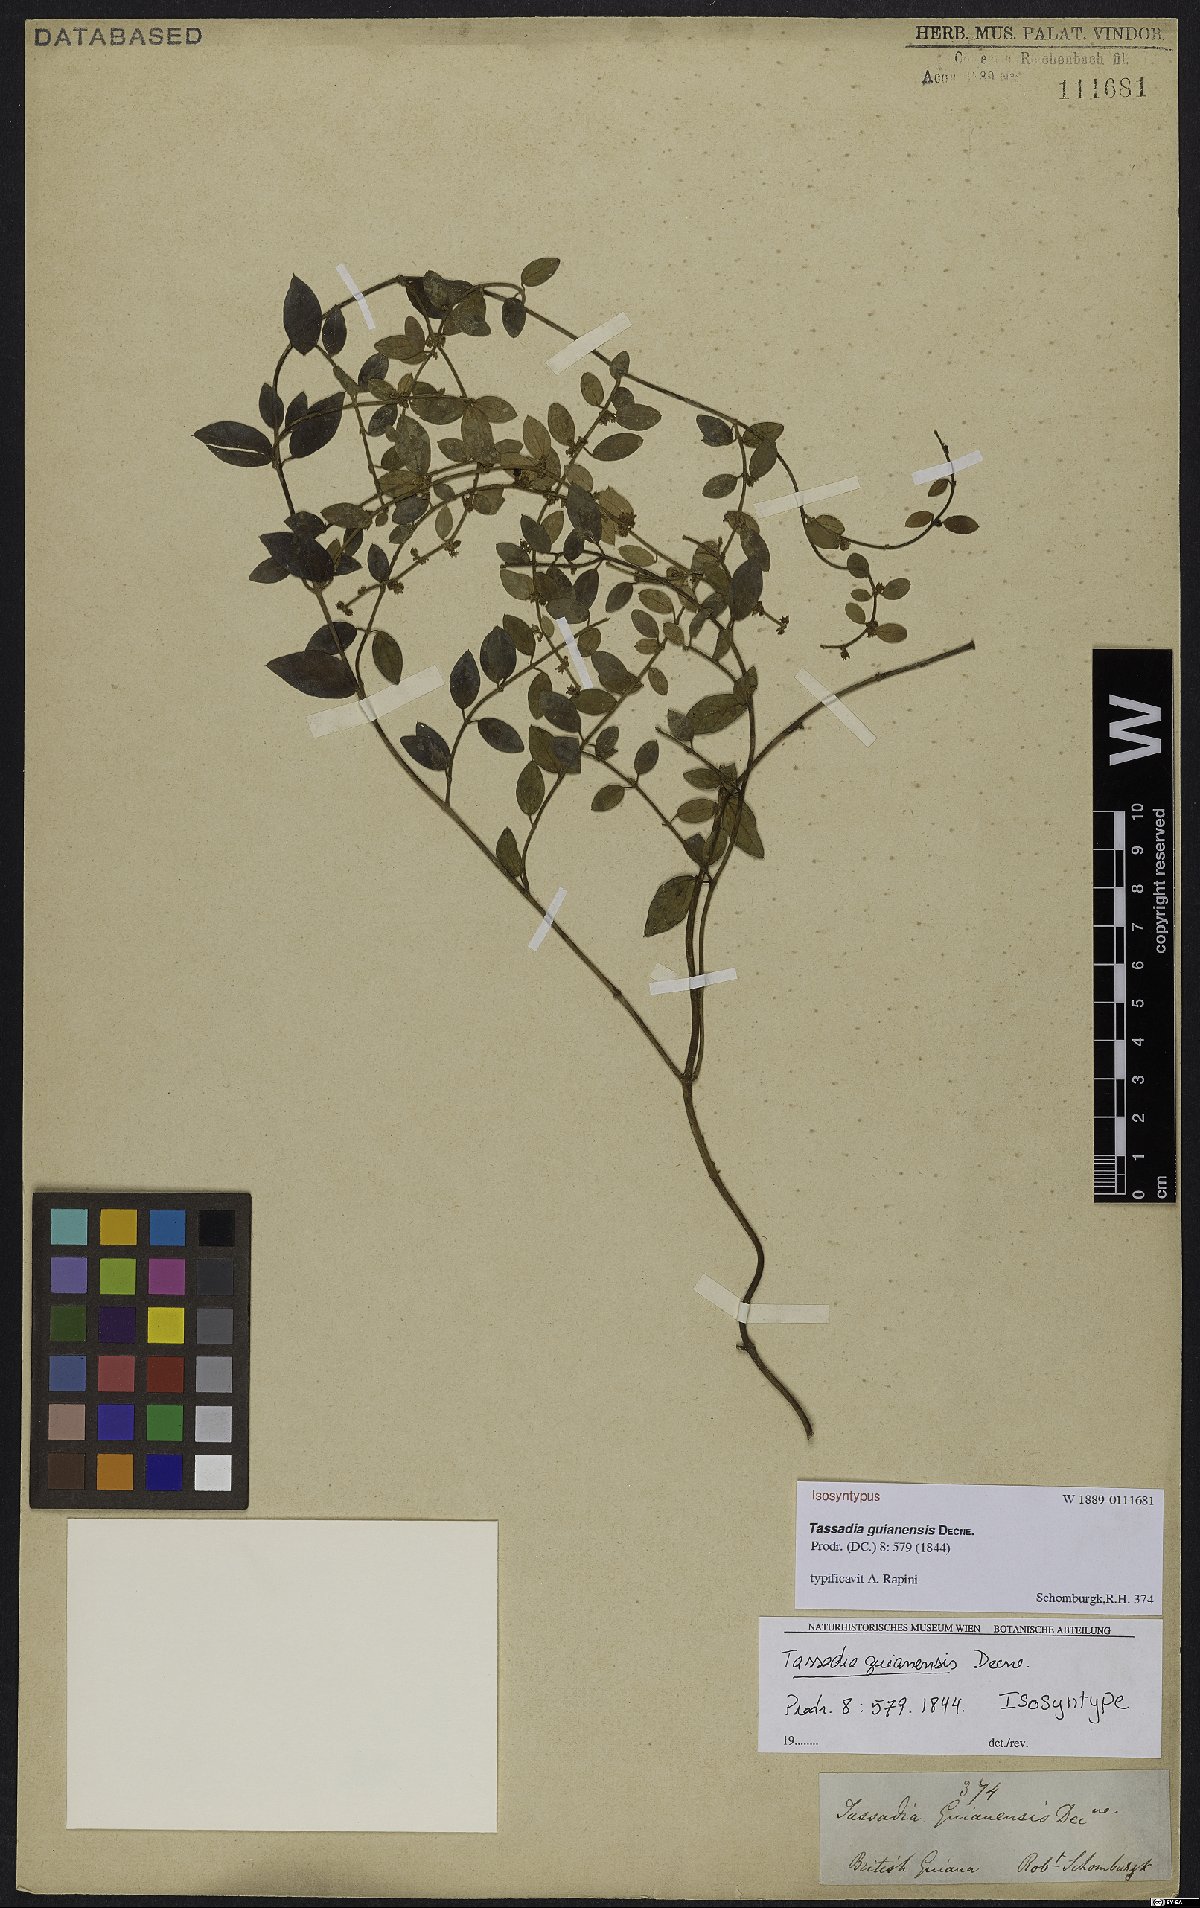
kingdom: Plantae
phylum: Tracheophyta
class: Magnoliopsida
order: Gentianales
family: Apocynaceae
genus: Tassadia
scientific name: Tassadia guianensis
